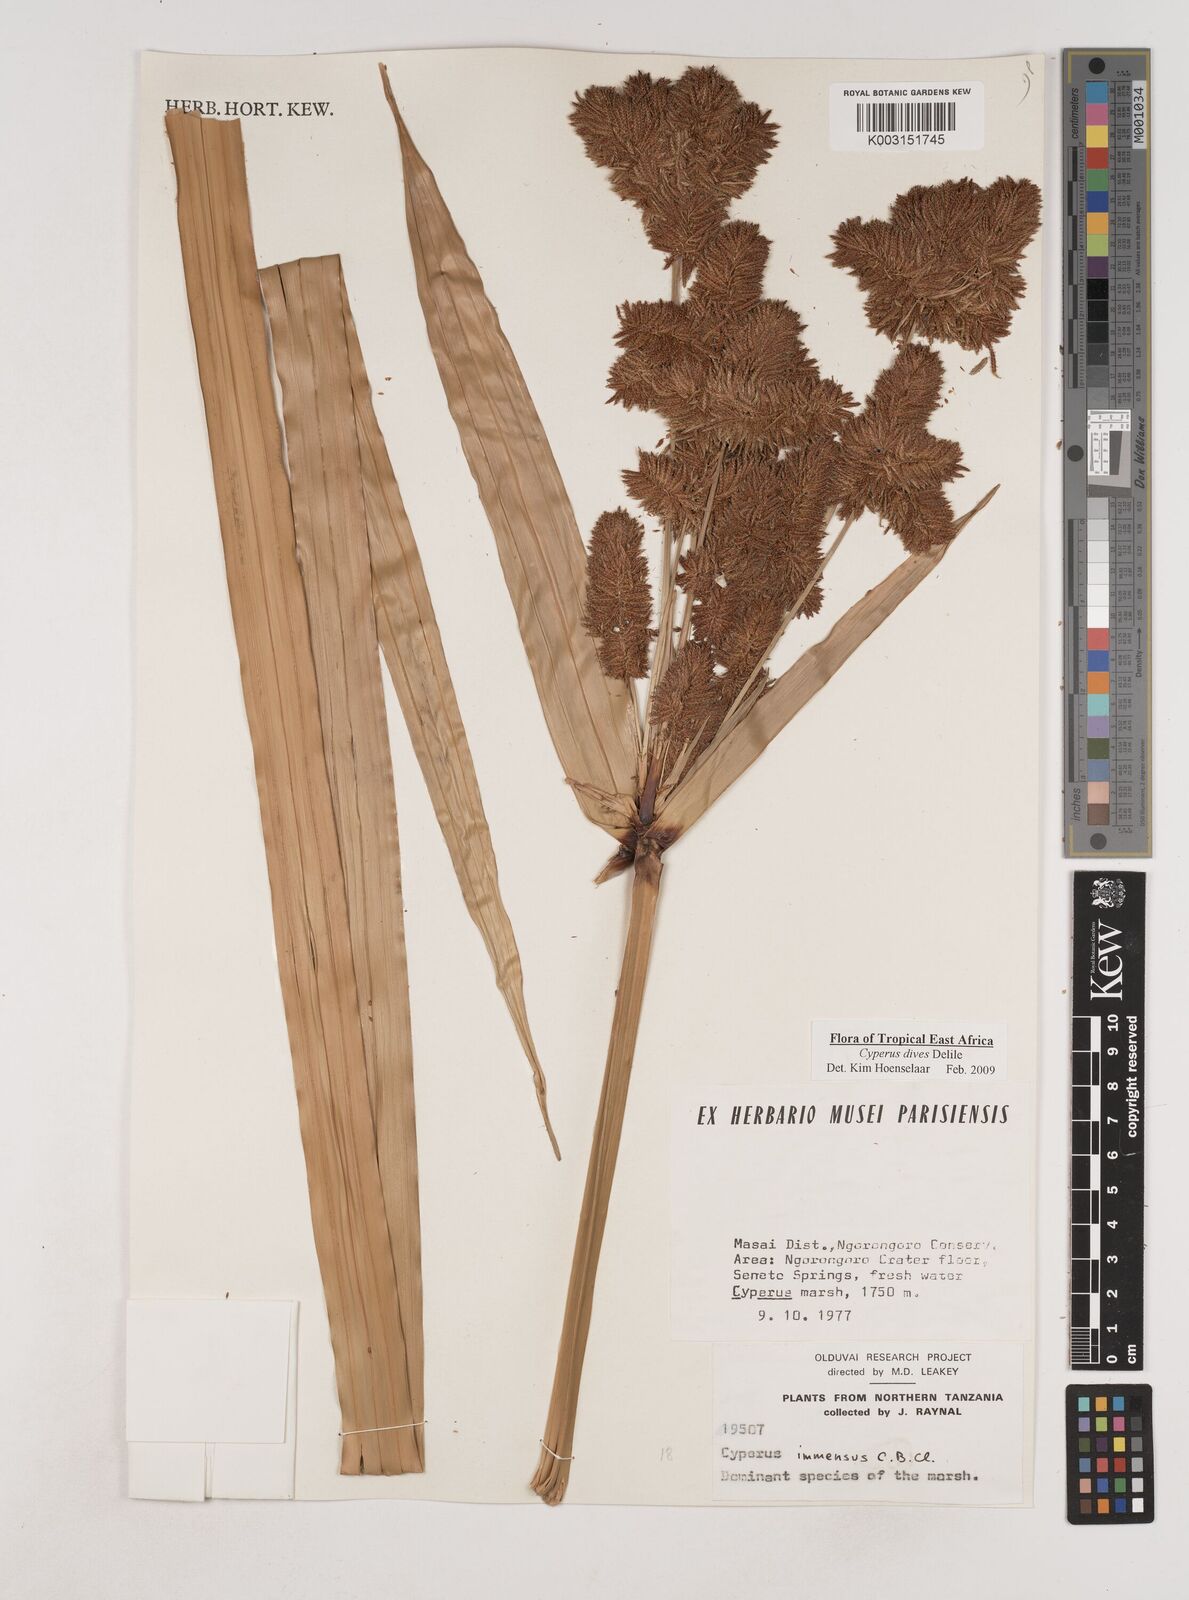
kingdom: Plantae
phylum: Tracheophyta
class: Liliopsida
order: Poales
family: Cyperaceae
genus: Cyperus
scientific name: Cyperus dives
